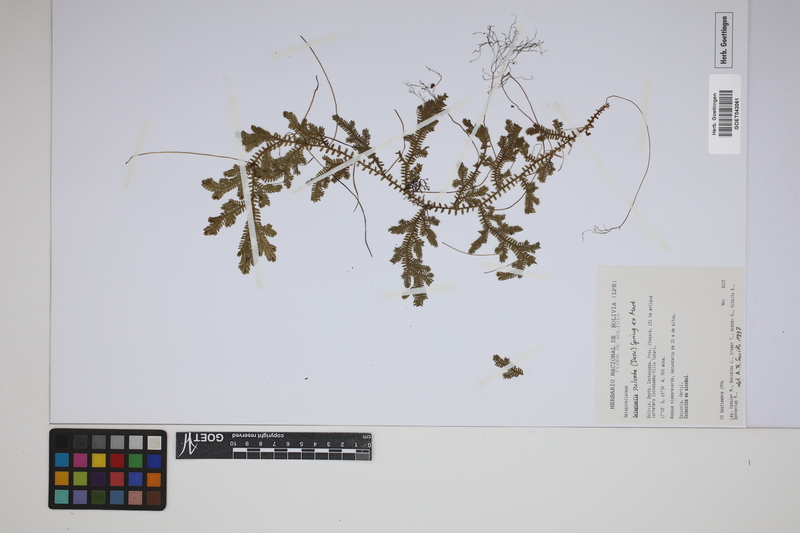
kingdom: Plantae
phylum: Tracheophyta
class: Lycopodiopsida
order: Selaginellales
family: Selaginellaceae
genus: Selaginella
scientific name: Selaginella sulcata
